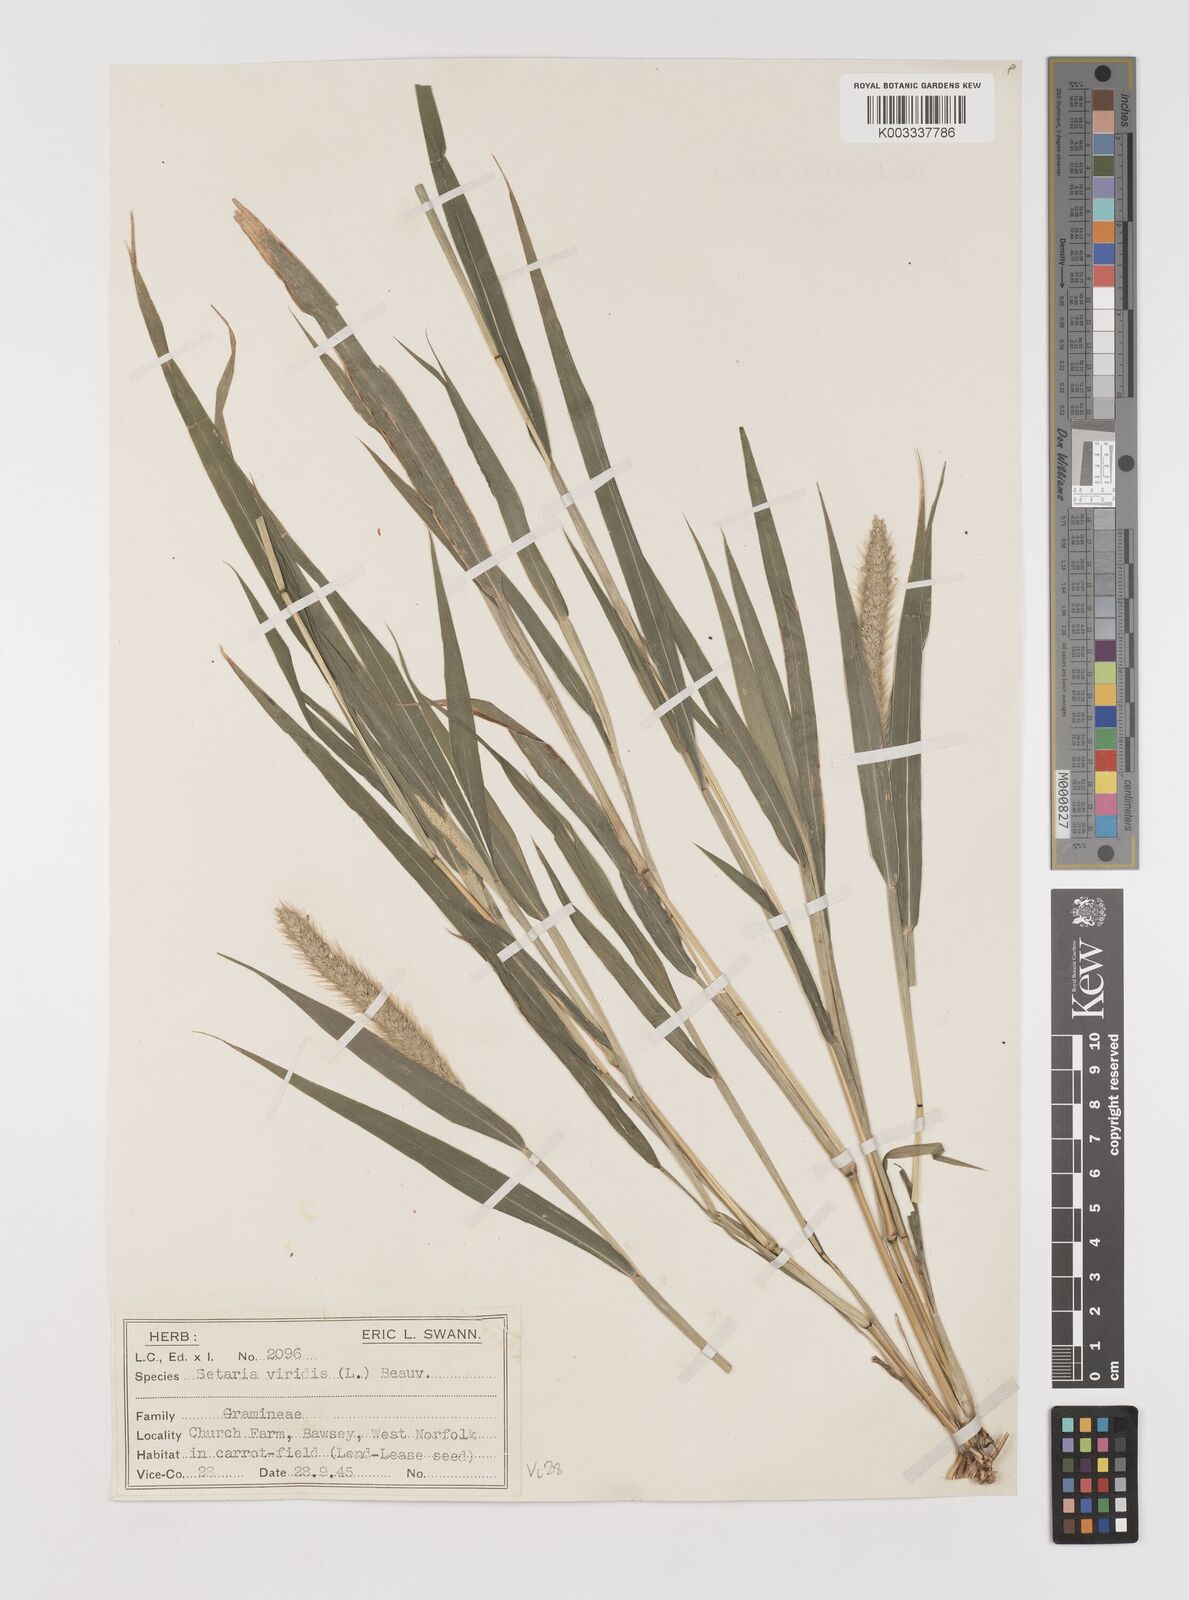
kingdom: Plantae
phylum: Tracheophyta
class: Liliopsida
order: Poales
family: Poaceae
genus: Setaria
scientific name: Setaria viridis
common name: Green bristlegrass
